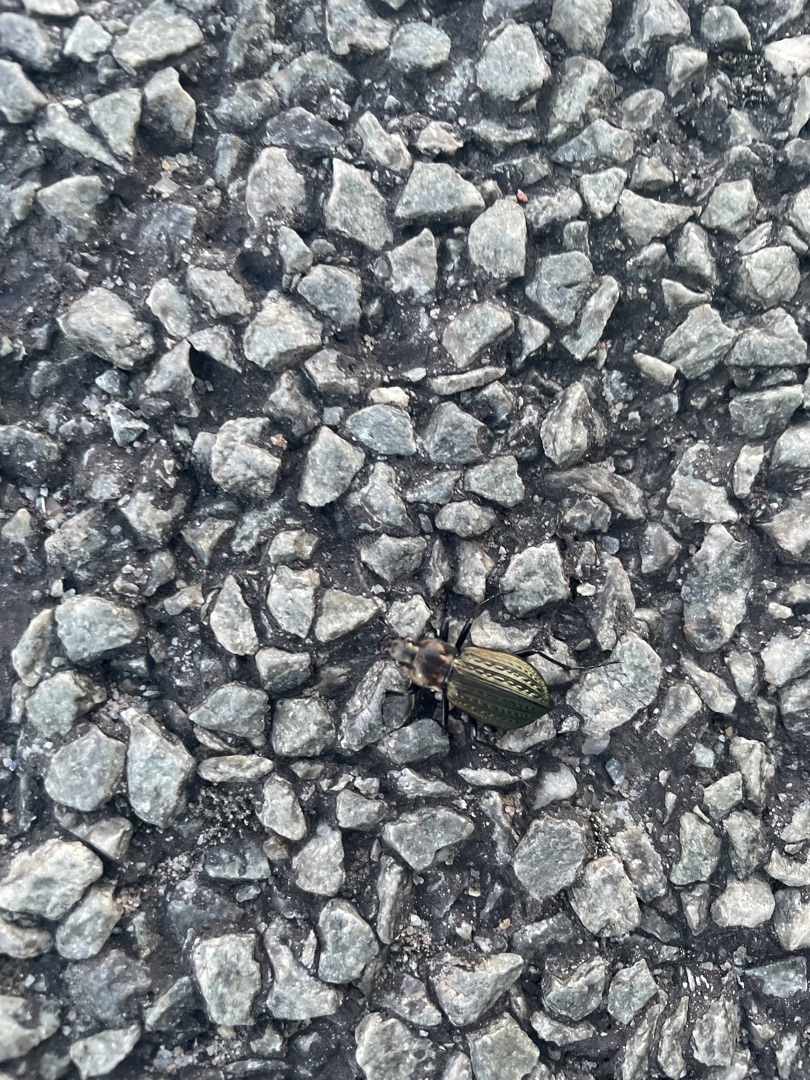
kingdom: Animalia
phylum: Arthropoda
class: Insecta
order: Coleoptera
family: Carabidae
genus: Carabus
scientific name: Carabus granulatus
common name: Kornet løber
